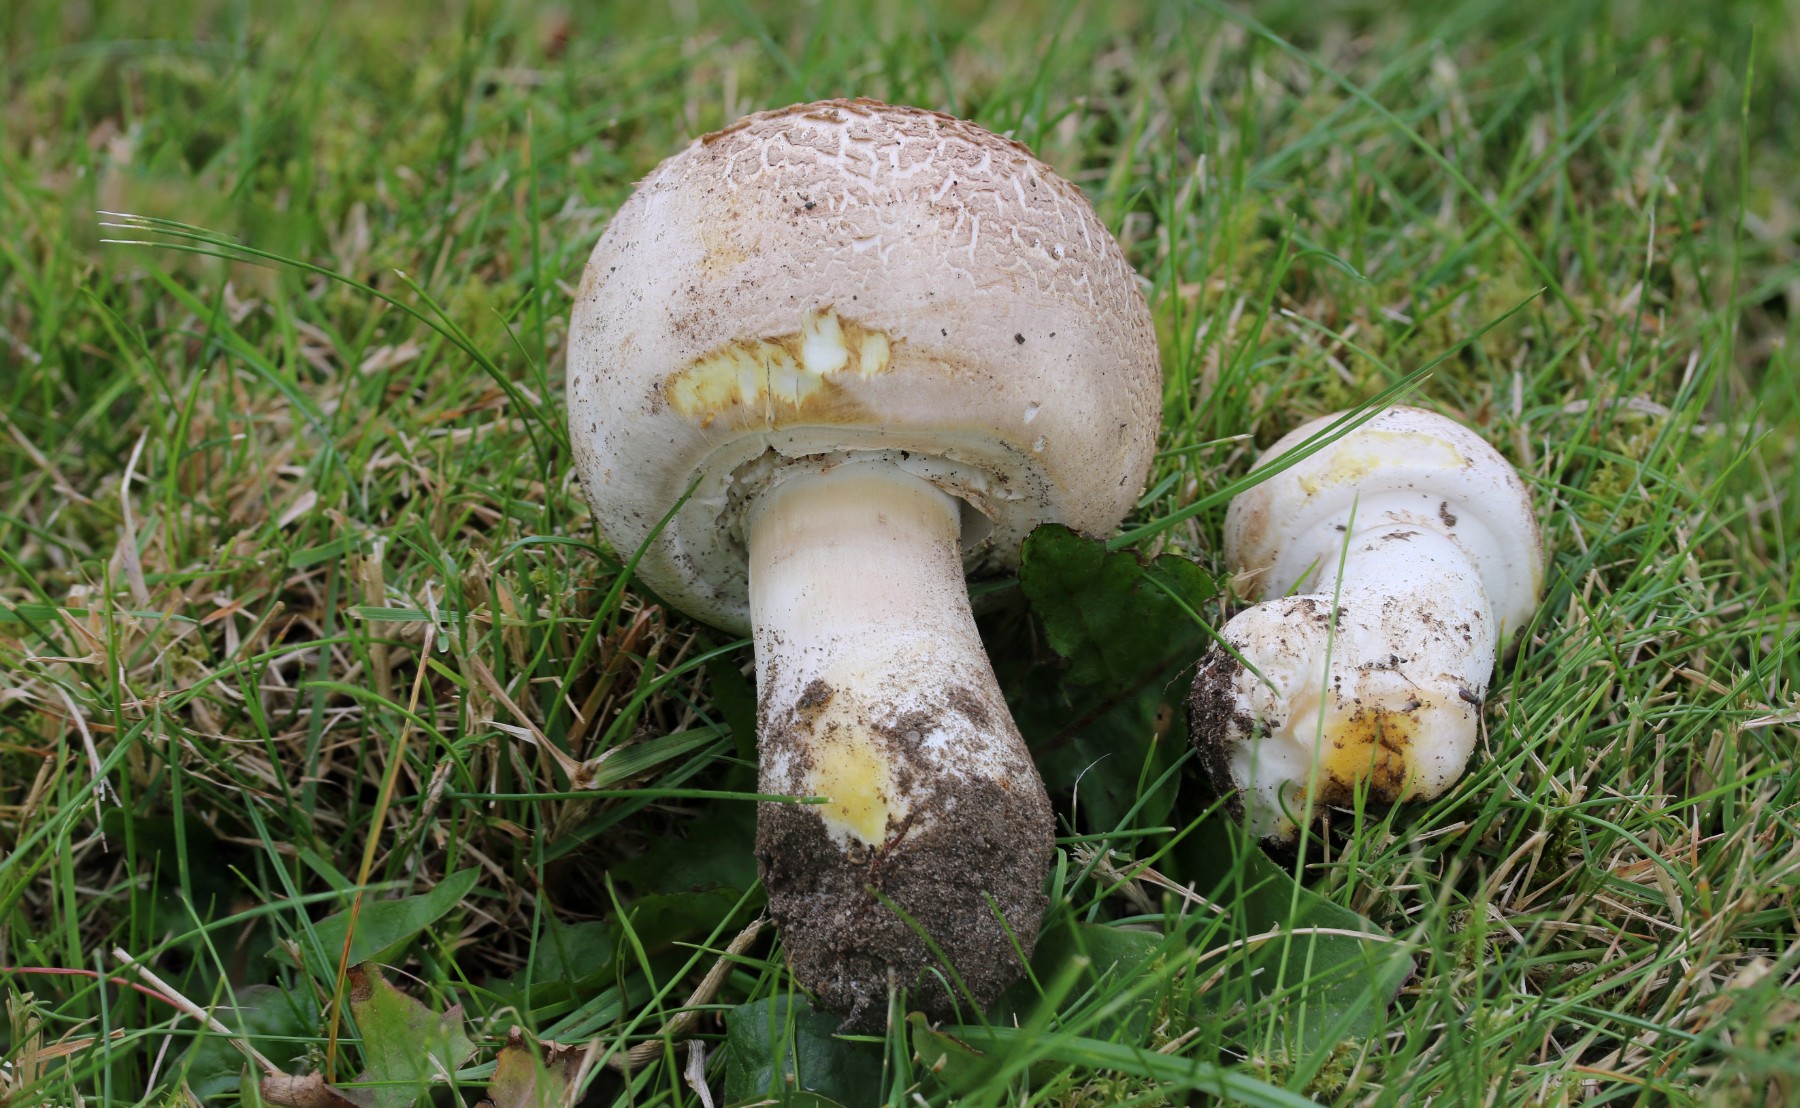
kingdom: Fungi
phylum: Basidiomycota
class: Agaricomycetes
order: Agaricales
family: Agaricaceae
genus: Agaricus
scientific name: Agaricus xanthodermus
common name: karbol-champignon
